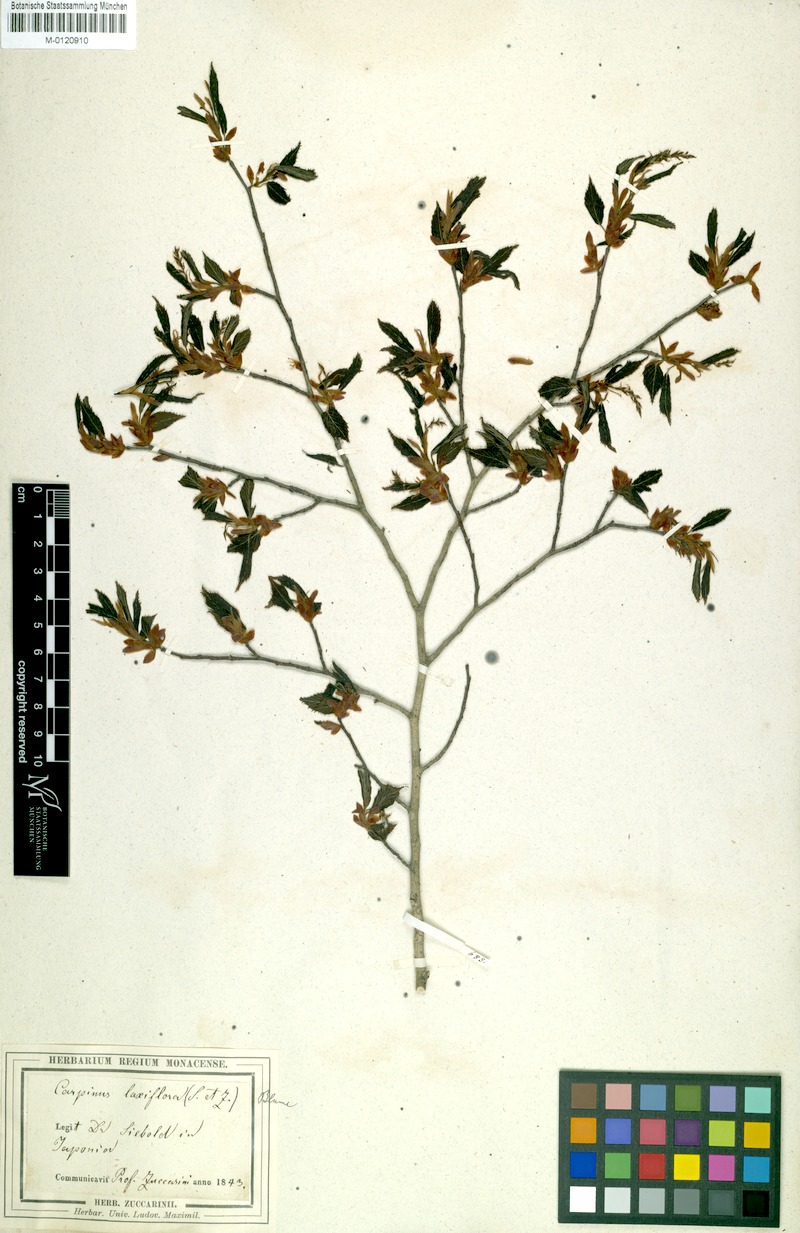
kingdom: Plantae
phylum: Tracheophyta
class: Magnoliopsida
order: Fagales
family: Betulaceae
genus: Carpinus
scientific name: Carpinus laxiflora
